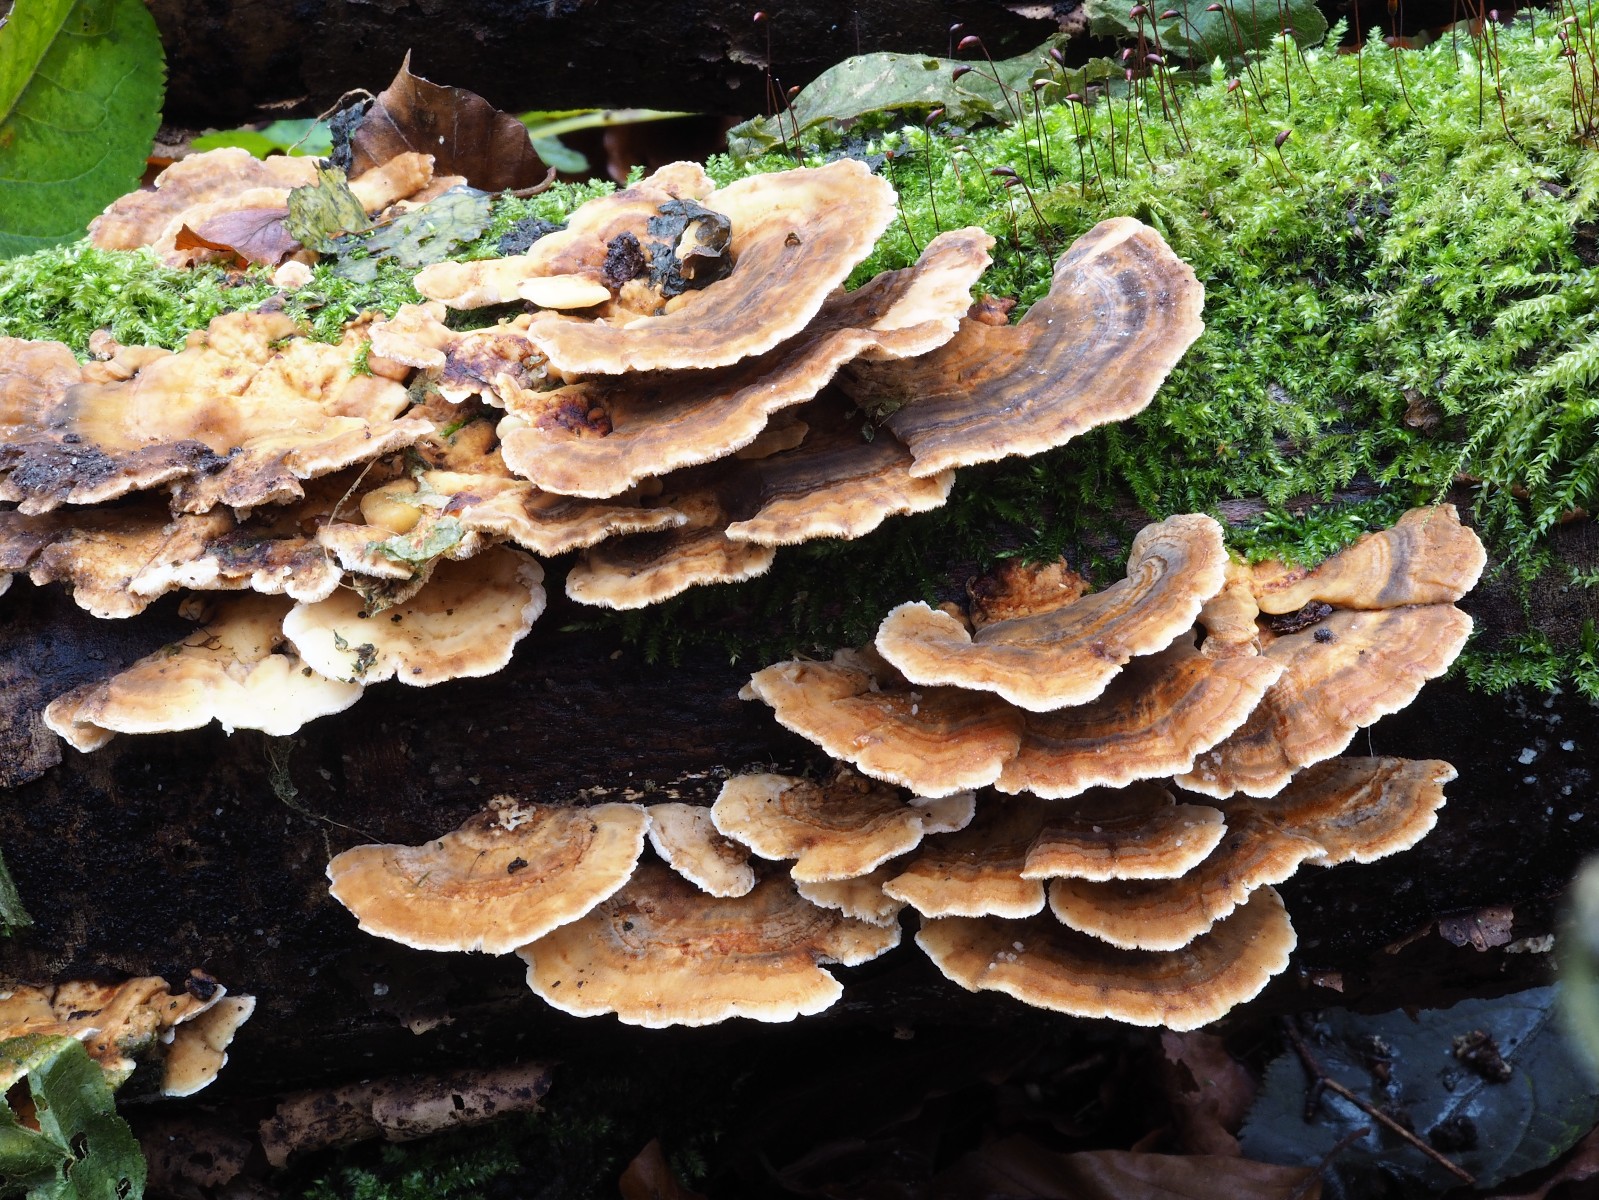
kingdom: Fungi
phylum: Basidiomycota
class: Agaricomycetes
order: Polyporales
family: Polyporaceae
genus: Trametes
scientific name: Trametes versicolor
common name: broget læderporesvamp
